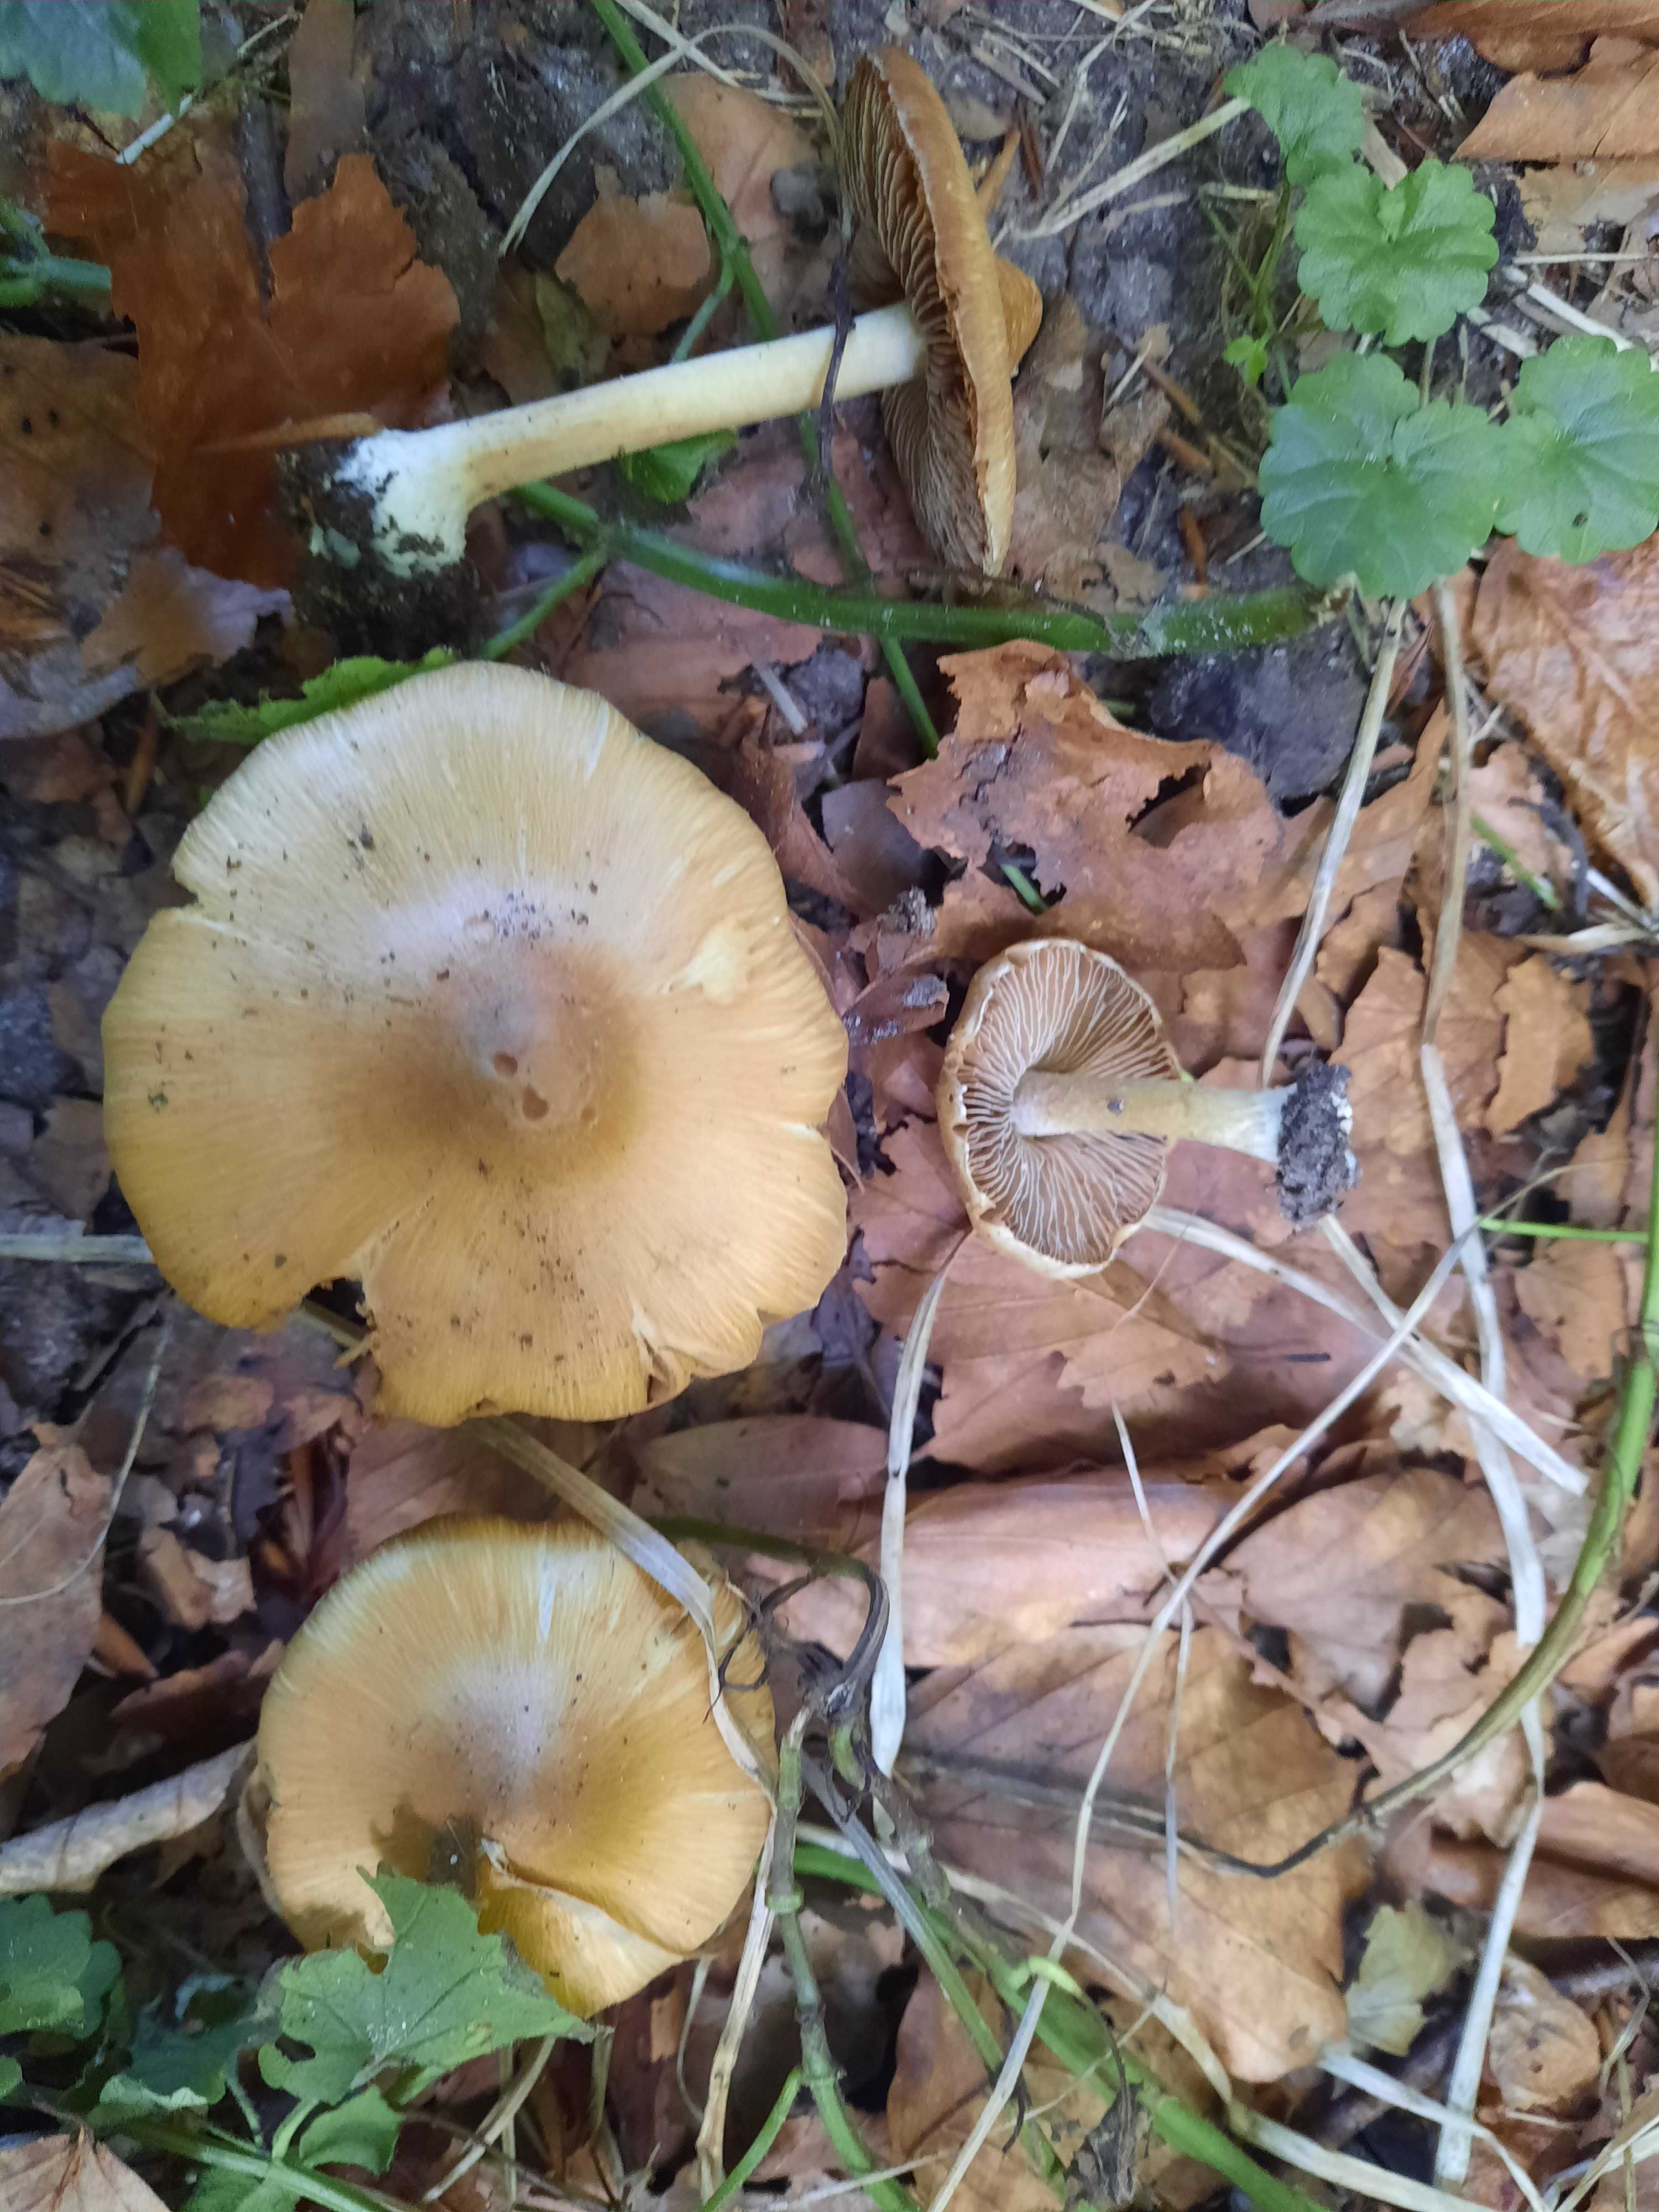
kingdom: Fungi
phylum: Basidiomycota
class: Agaricomycetes
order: Agaricales
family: Inocybaceae
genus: Inosperma
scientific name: Inosperma
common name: Trævlhat
